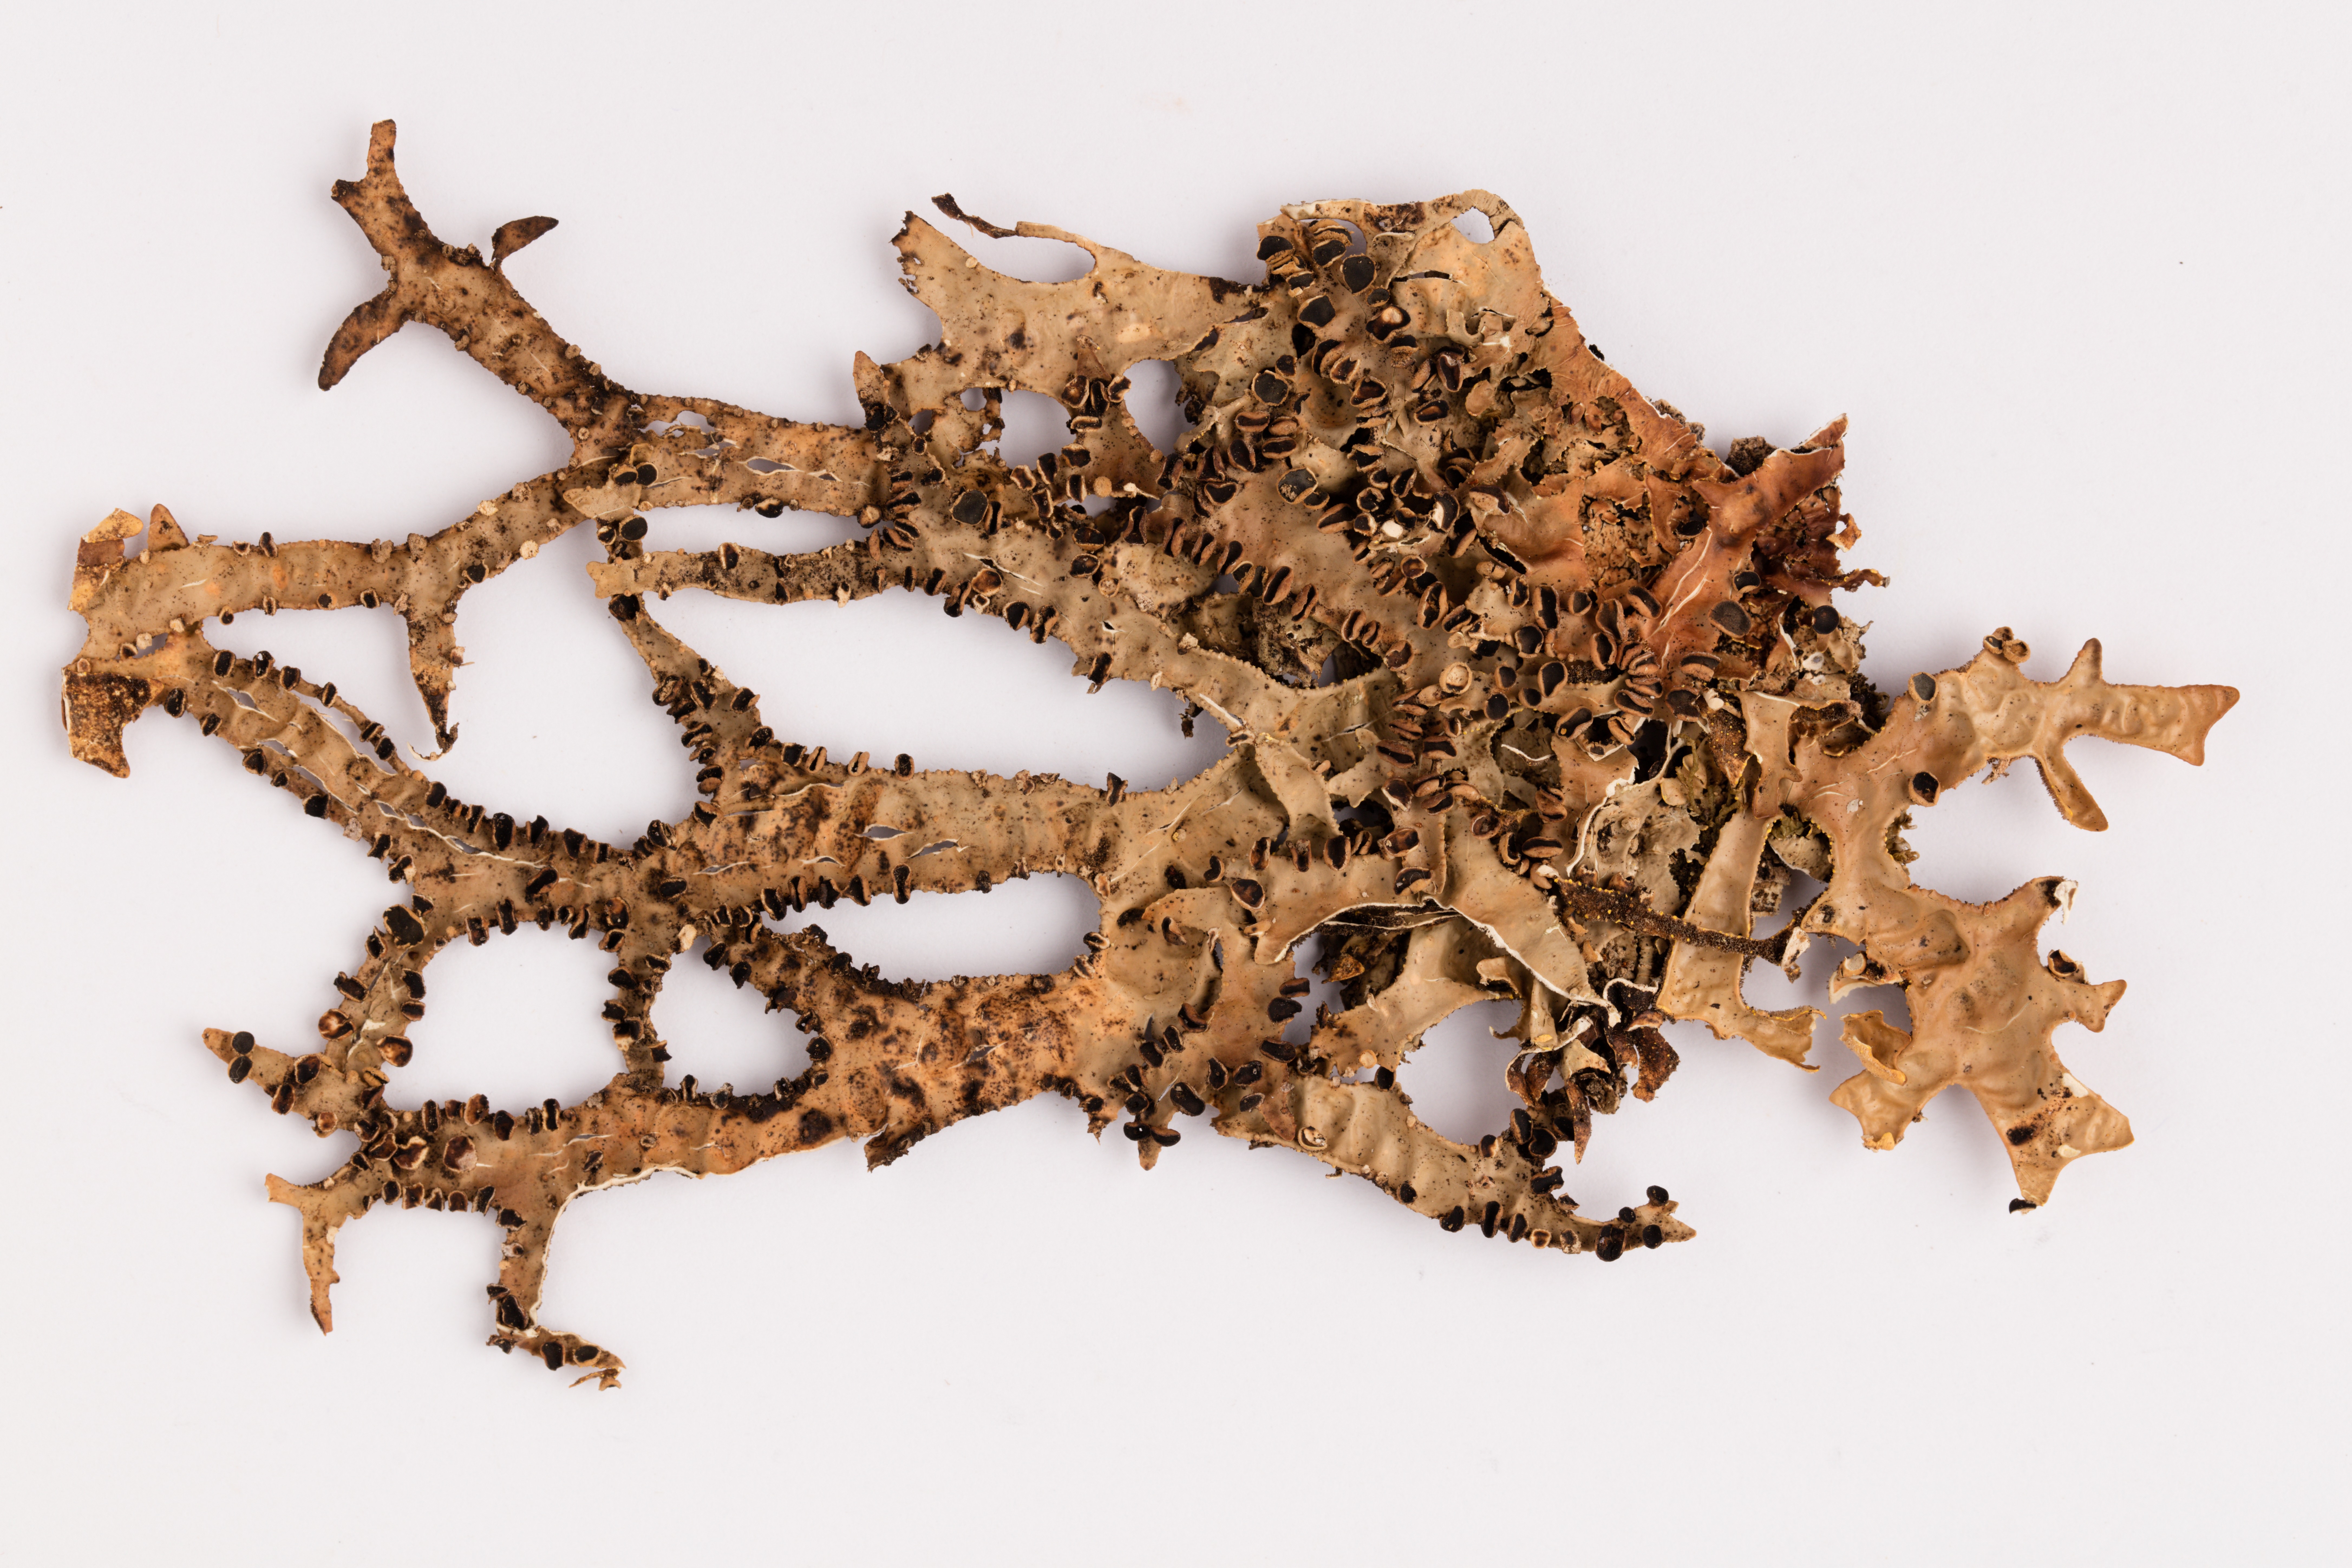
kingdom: Fungi
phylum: Ascomycota
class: Lecanoromycetes
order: Peltigerales
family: Lobariaceae
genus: Pseudocyphellaria
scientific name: Pseudocyphellaria carpoloma
